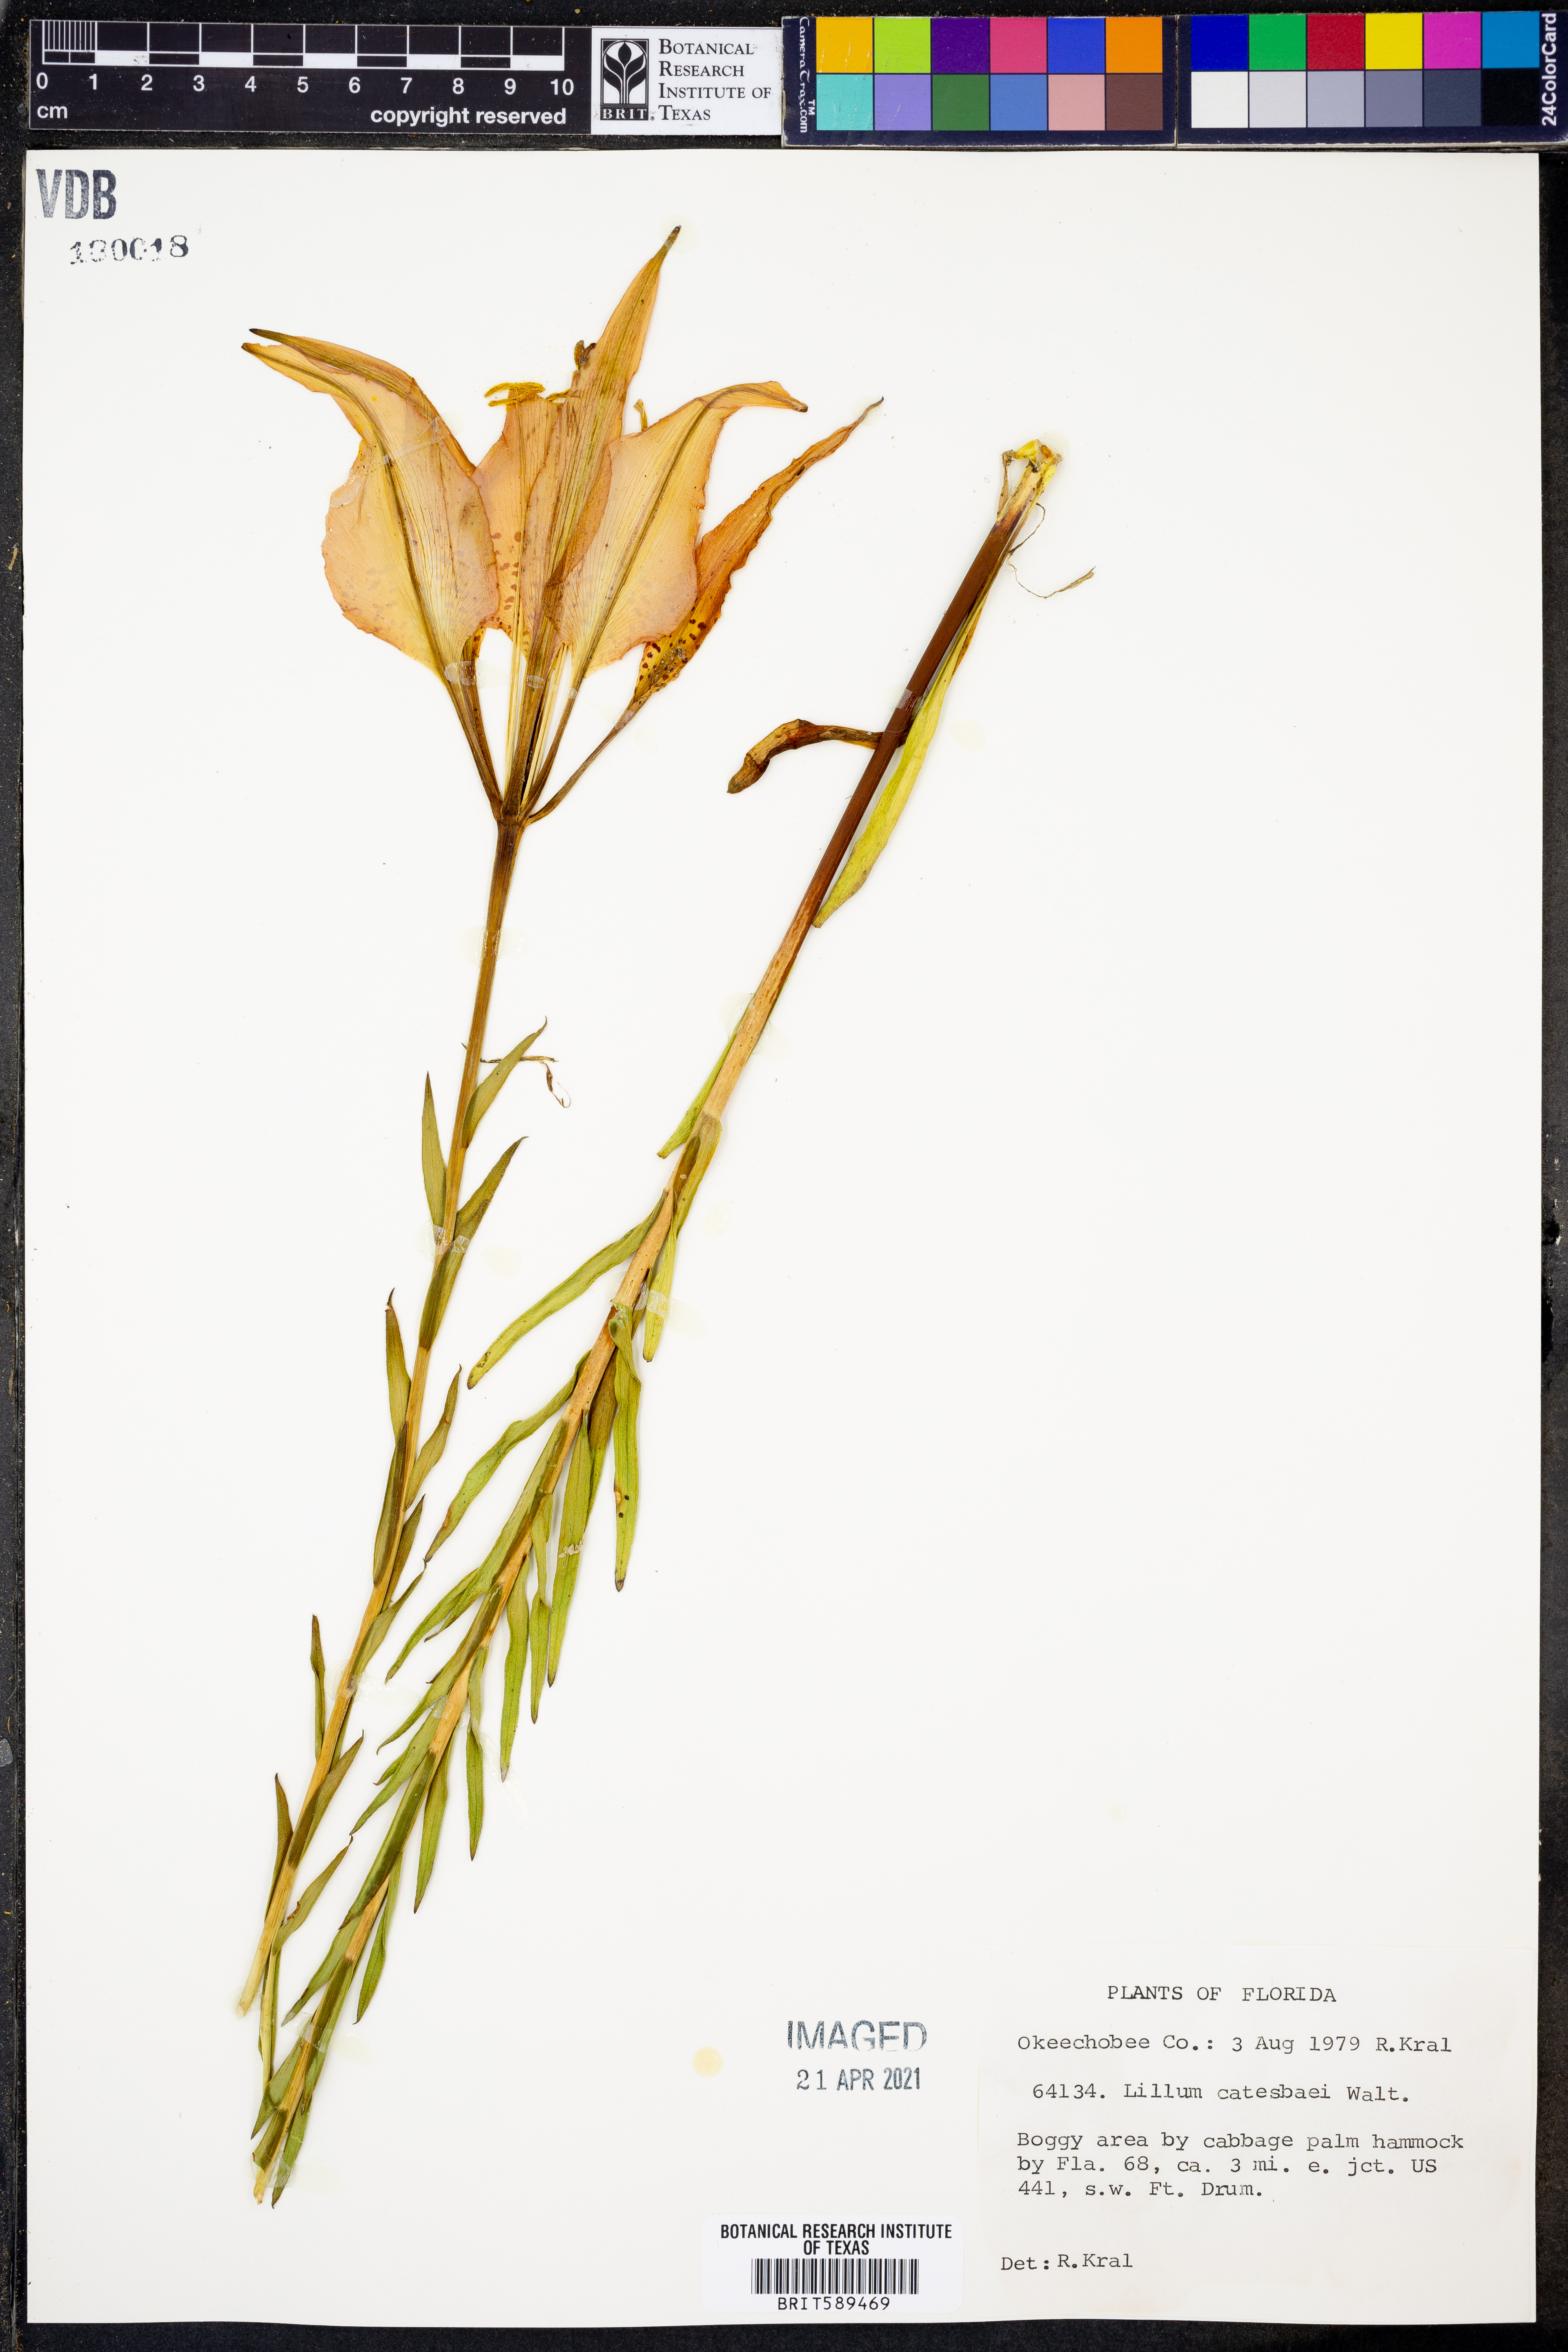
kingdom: Plantae
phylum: Tracheophyta
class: Liliopsida
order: Liliales
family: Liliaceae
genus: Lilium
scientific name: Lilium catesbaei
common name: Catesby's lily
